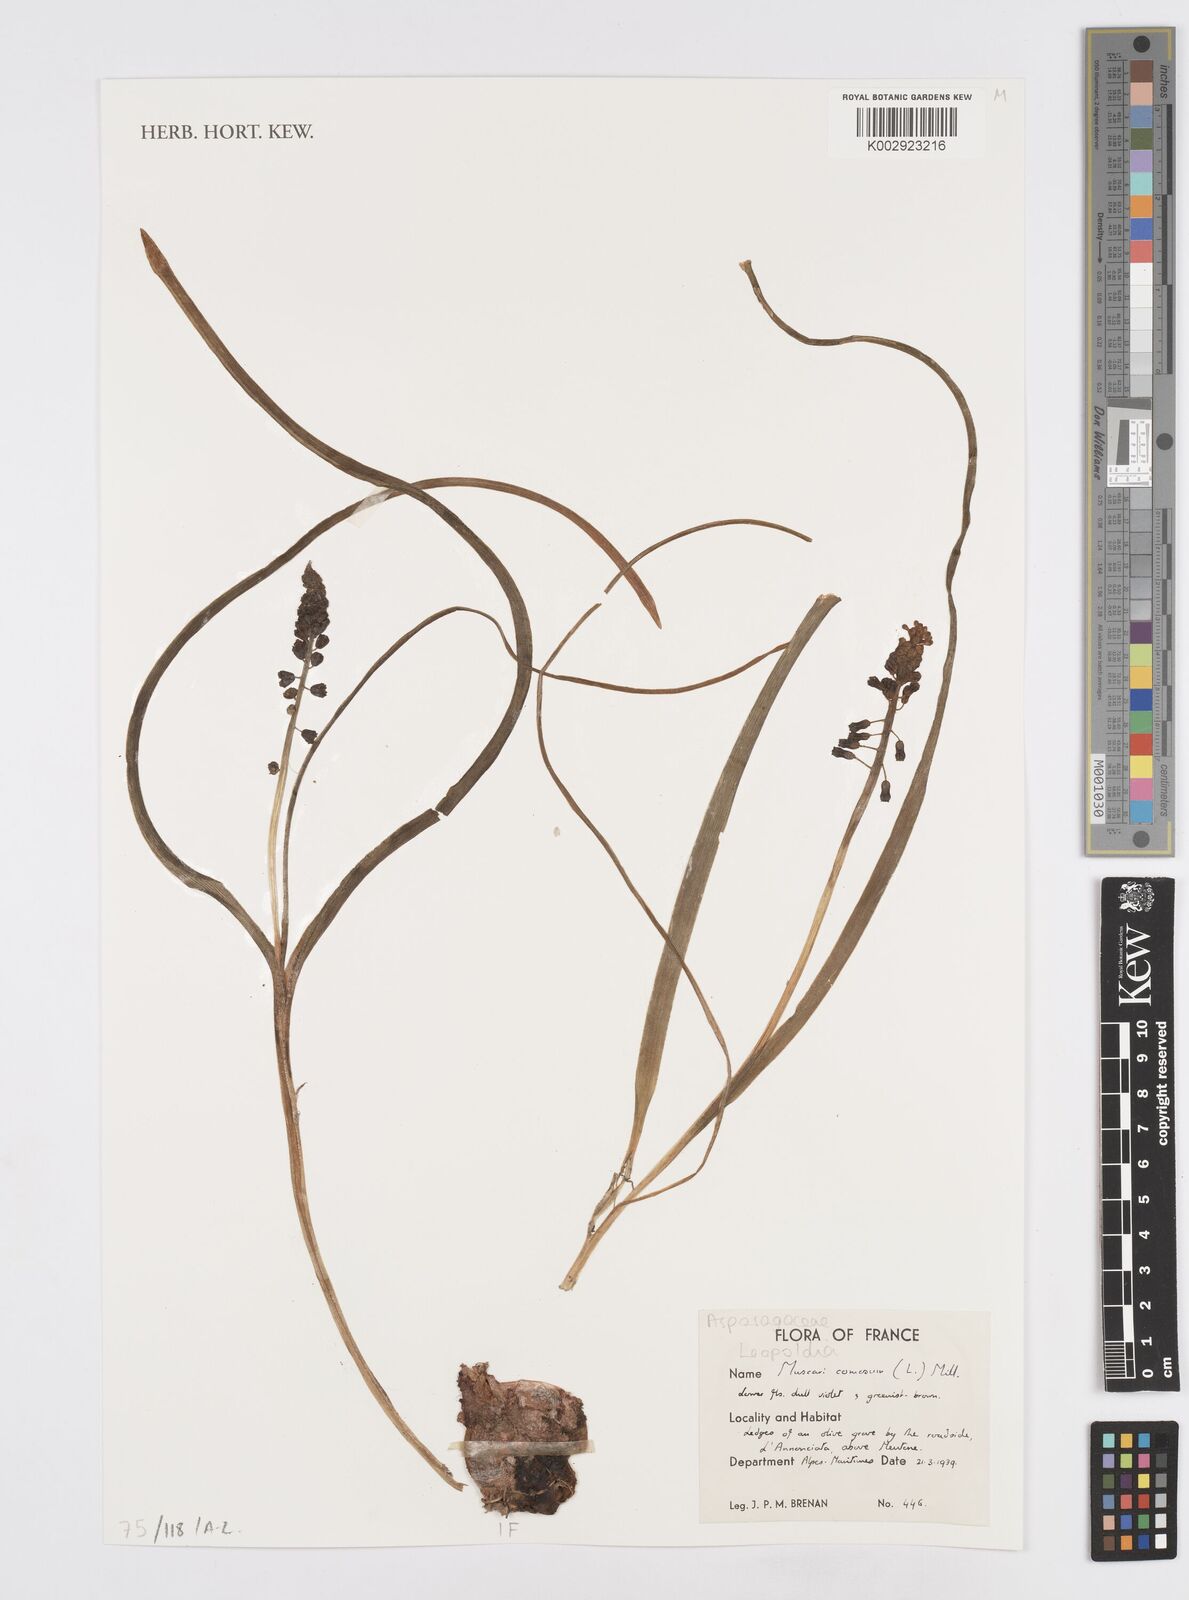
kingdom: Plantae
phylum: Tracheophyta
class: Liliopsida
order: Asparagales
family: Asparagaceae
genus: Muscari
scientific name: Muscari comosum
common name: Tassel hyacinth
